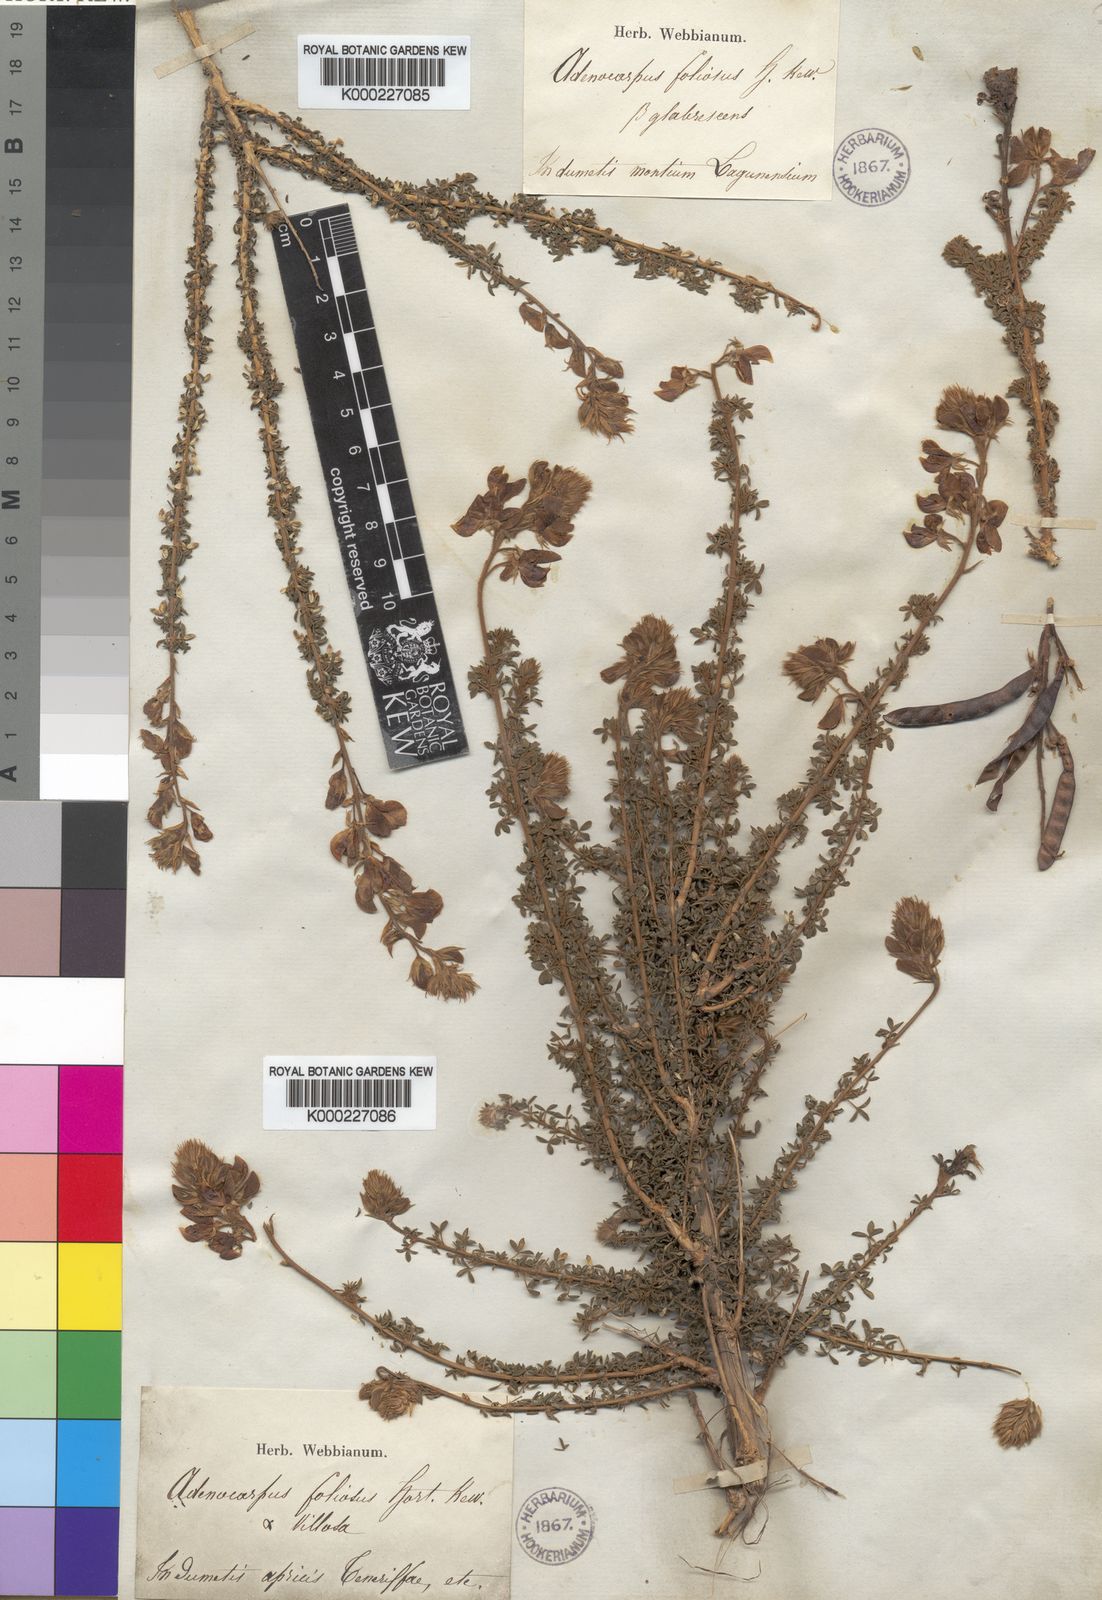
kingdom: Plantae
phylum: Tracheophyta
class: Magnoliopsida
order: Fabales
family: Fabaceae
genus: Adenocarpus
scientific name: Adenocarpus foliolosus
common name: Canary island flatpod
